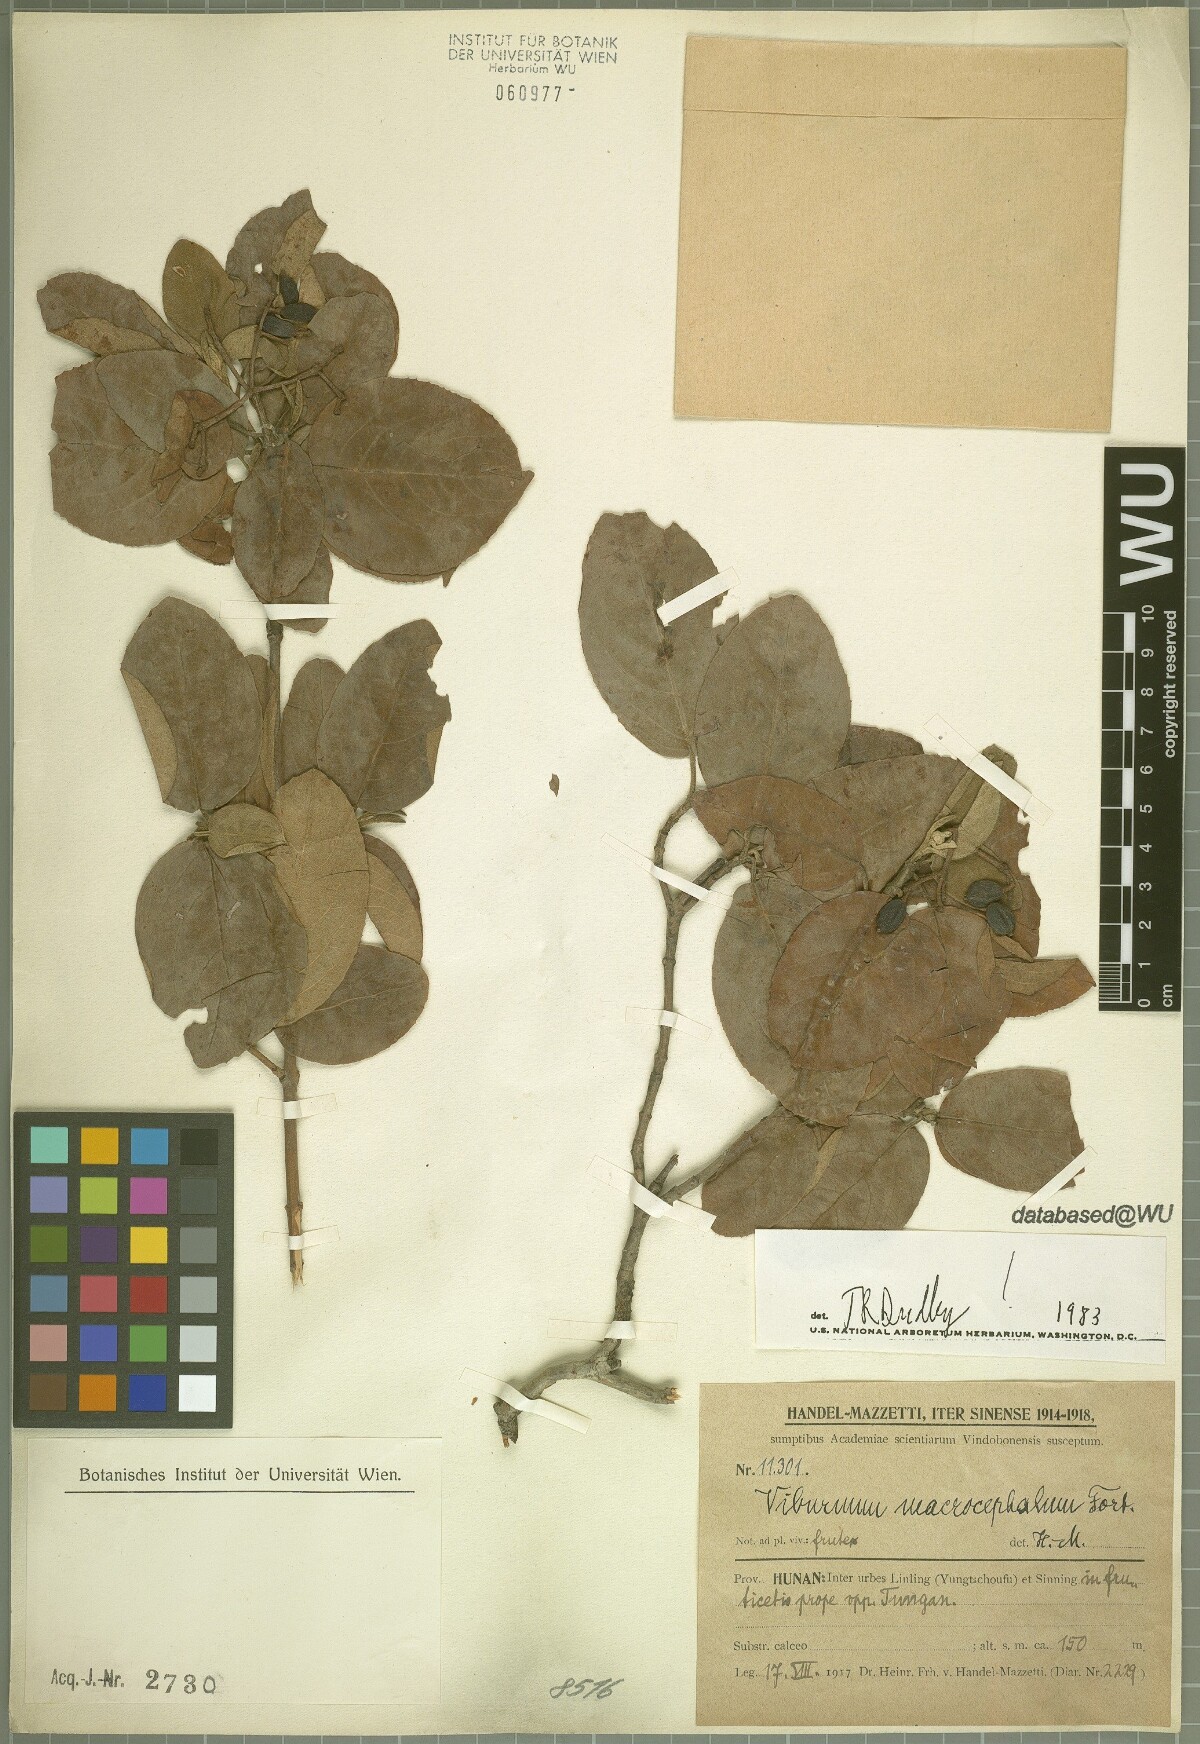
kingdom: Plantae
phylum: Tracheophyta
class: Magnoliopsida
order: Dipsacales
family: Viburnaceae
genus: Viburnum
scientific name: Viburnum macrocephalum
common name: Chinese snowball viburnum
